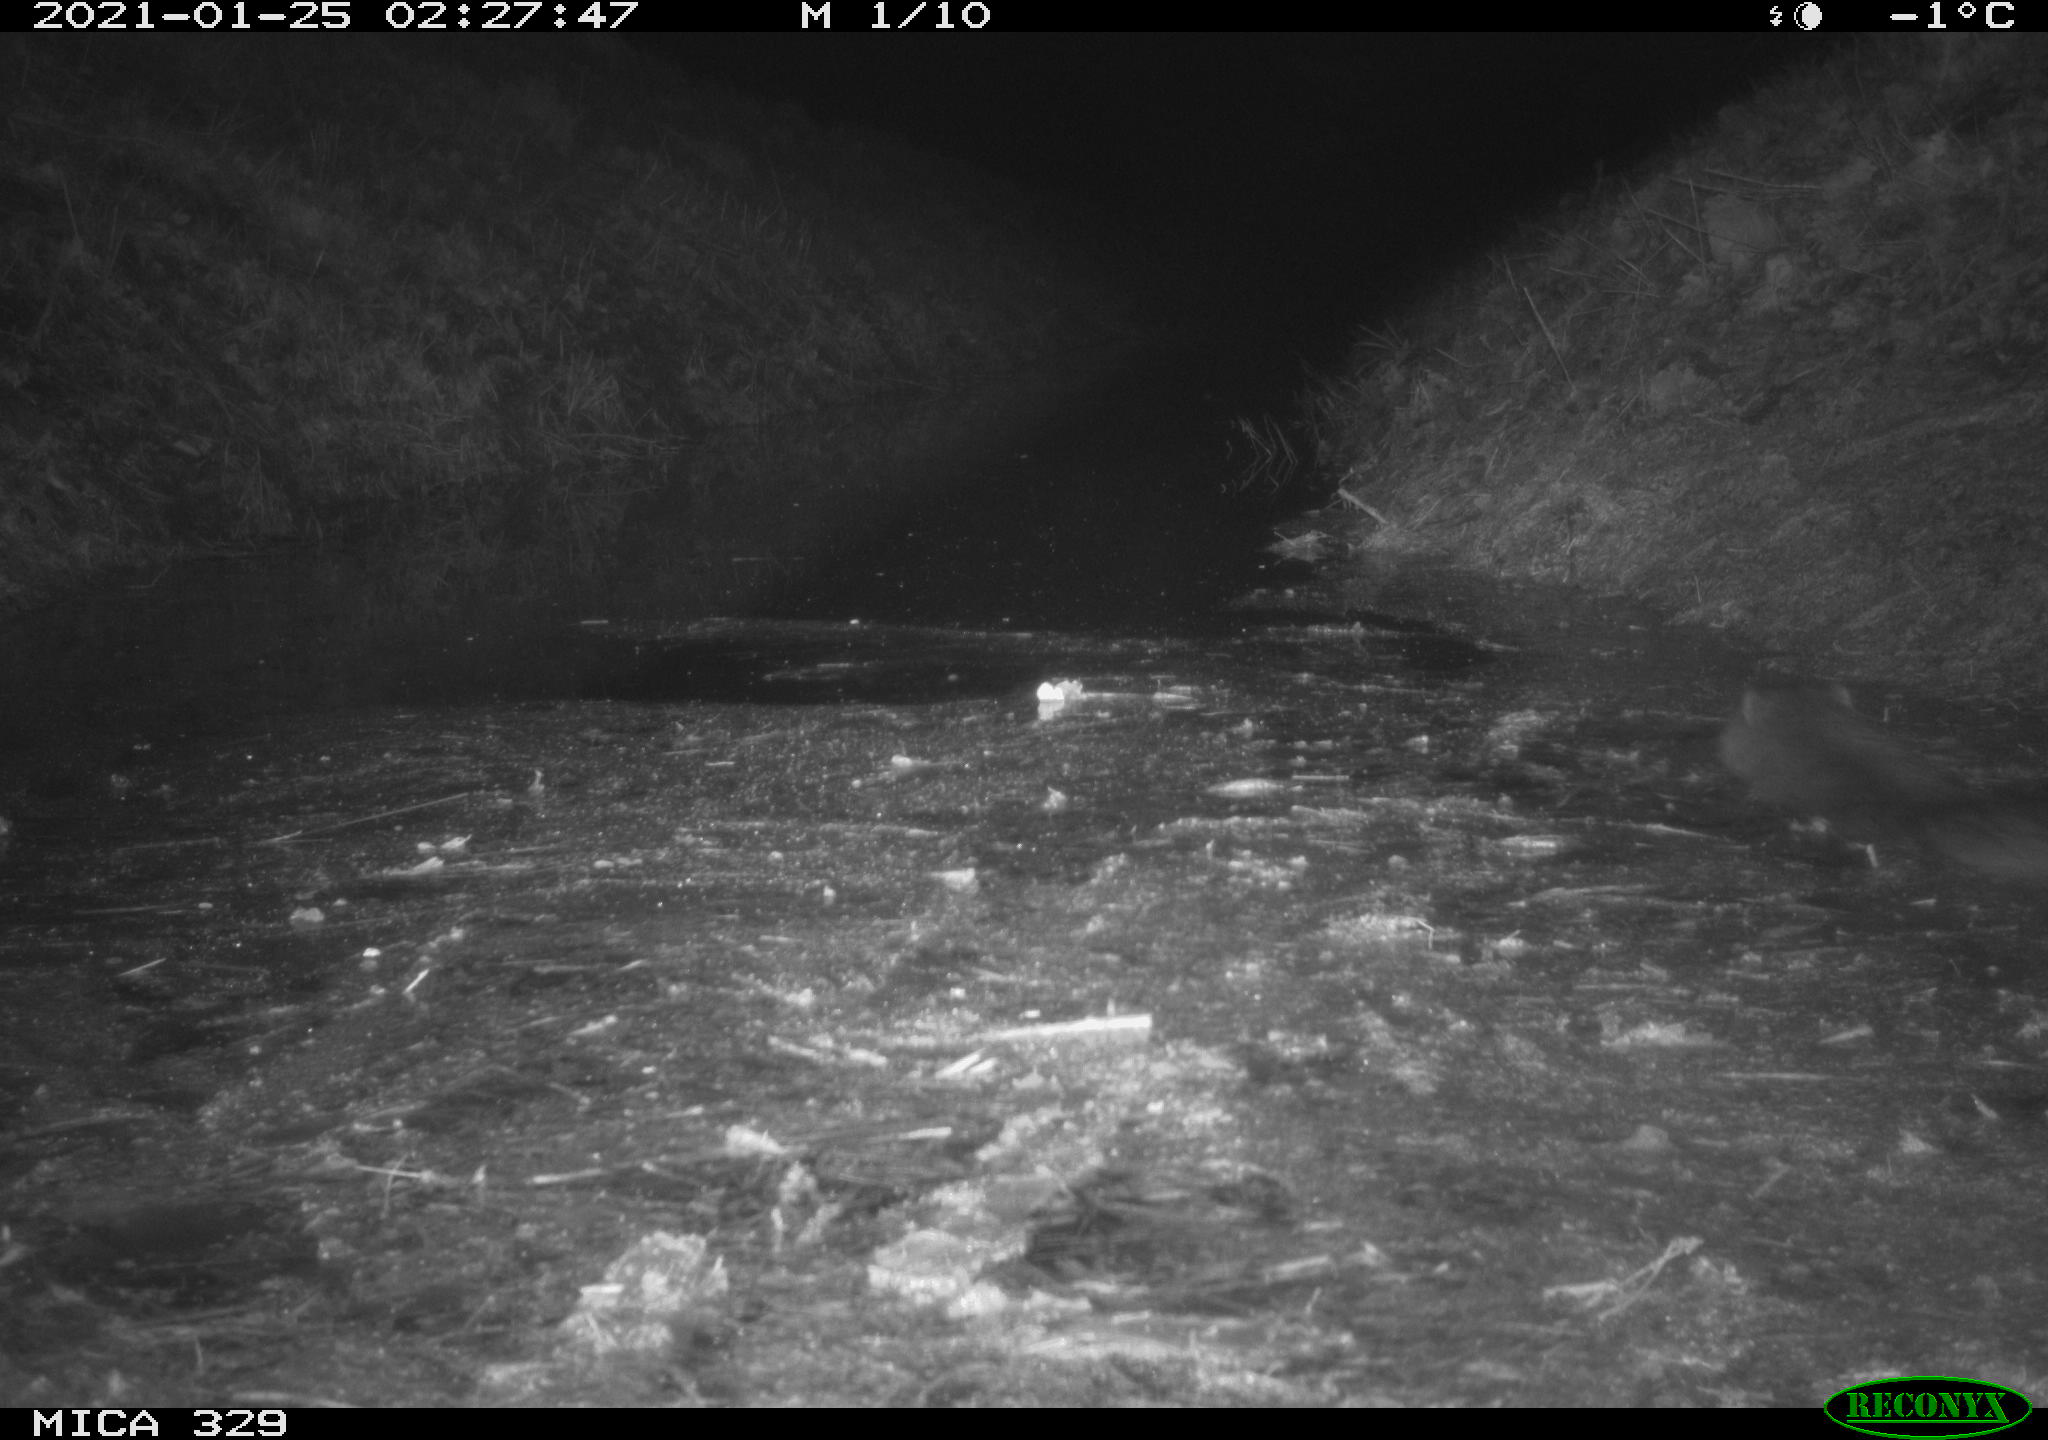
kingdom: Animalia
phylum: Chordata
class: Mammalia
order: Rodentia
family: Myocastoridae
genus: Myocastor
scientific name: Myocastor coypus
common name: Coypu
